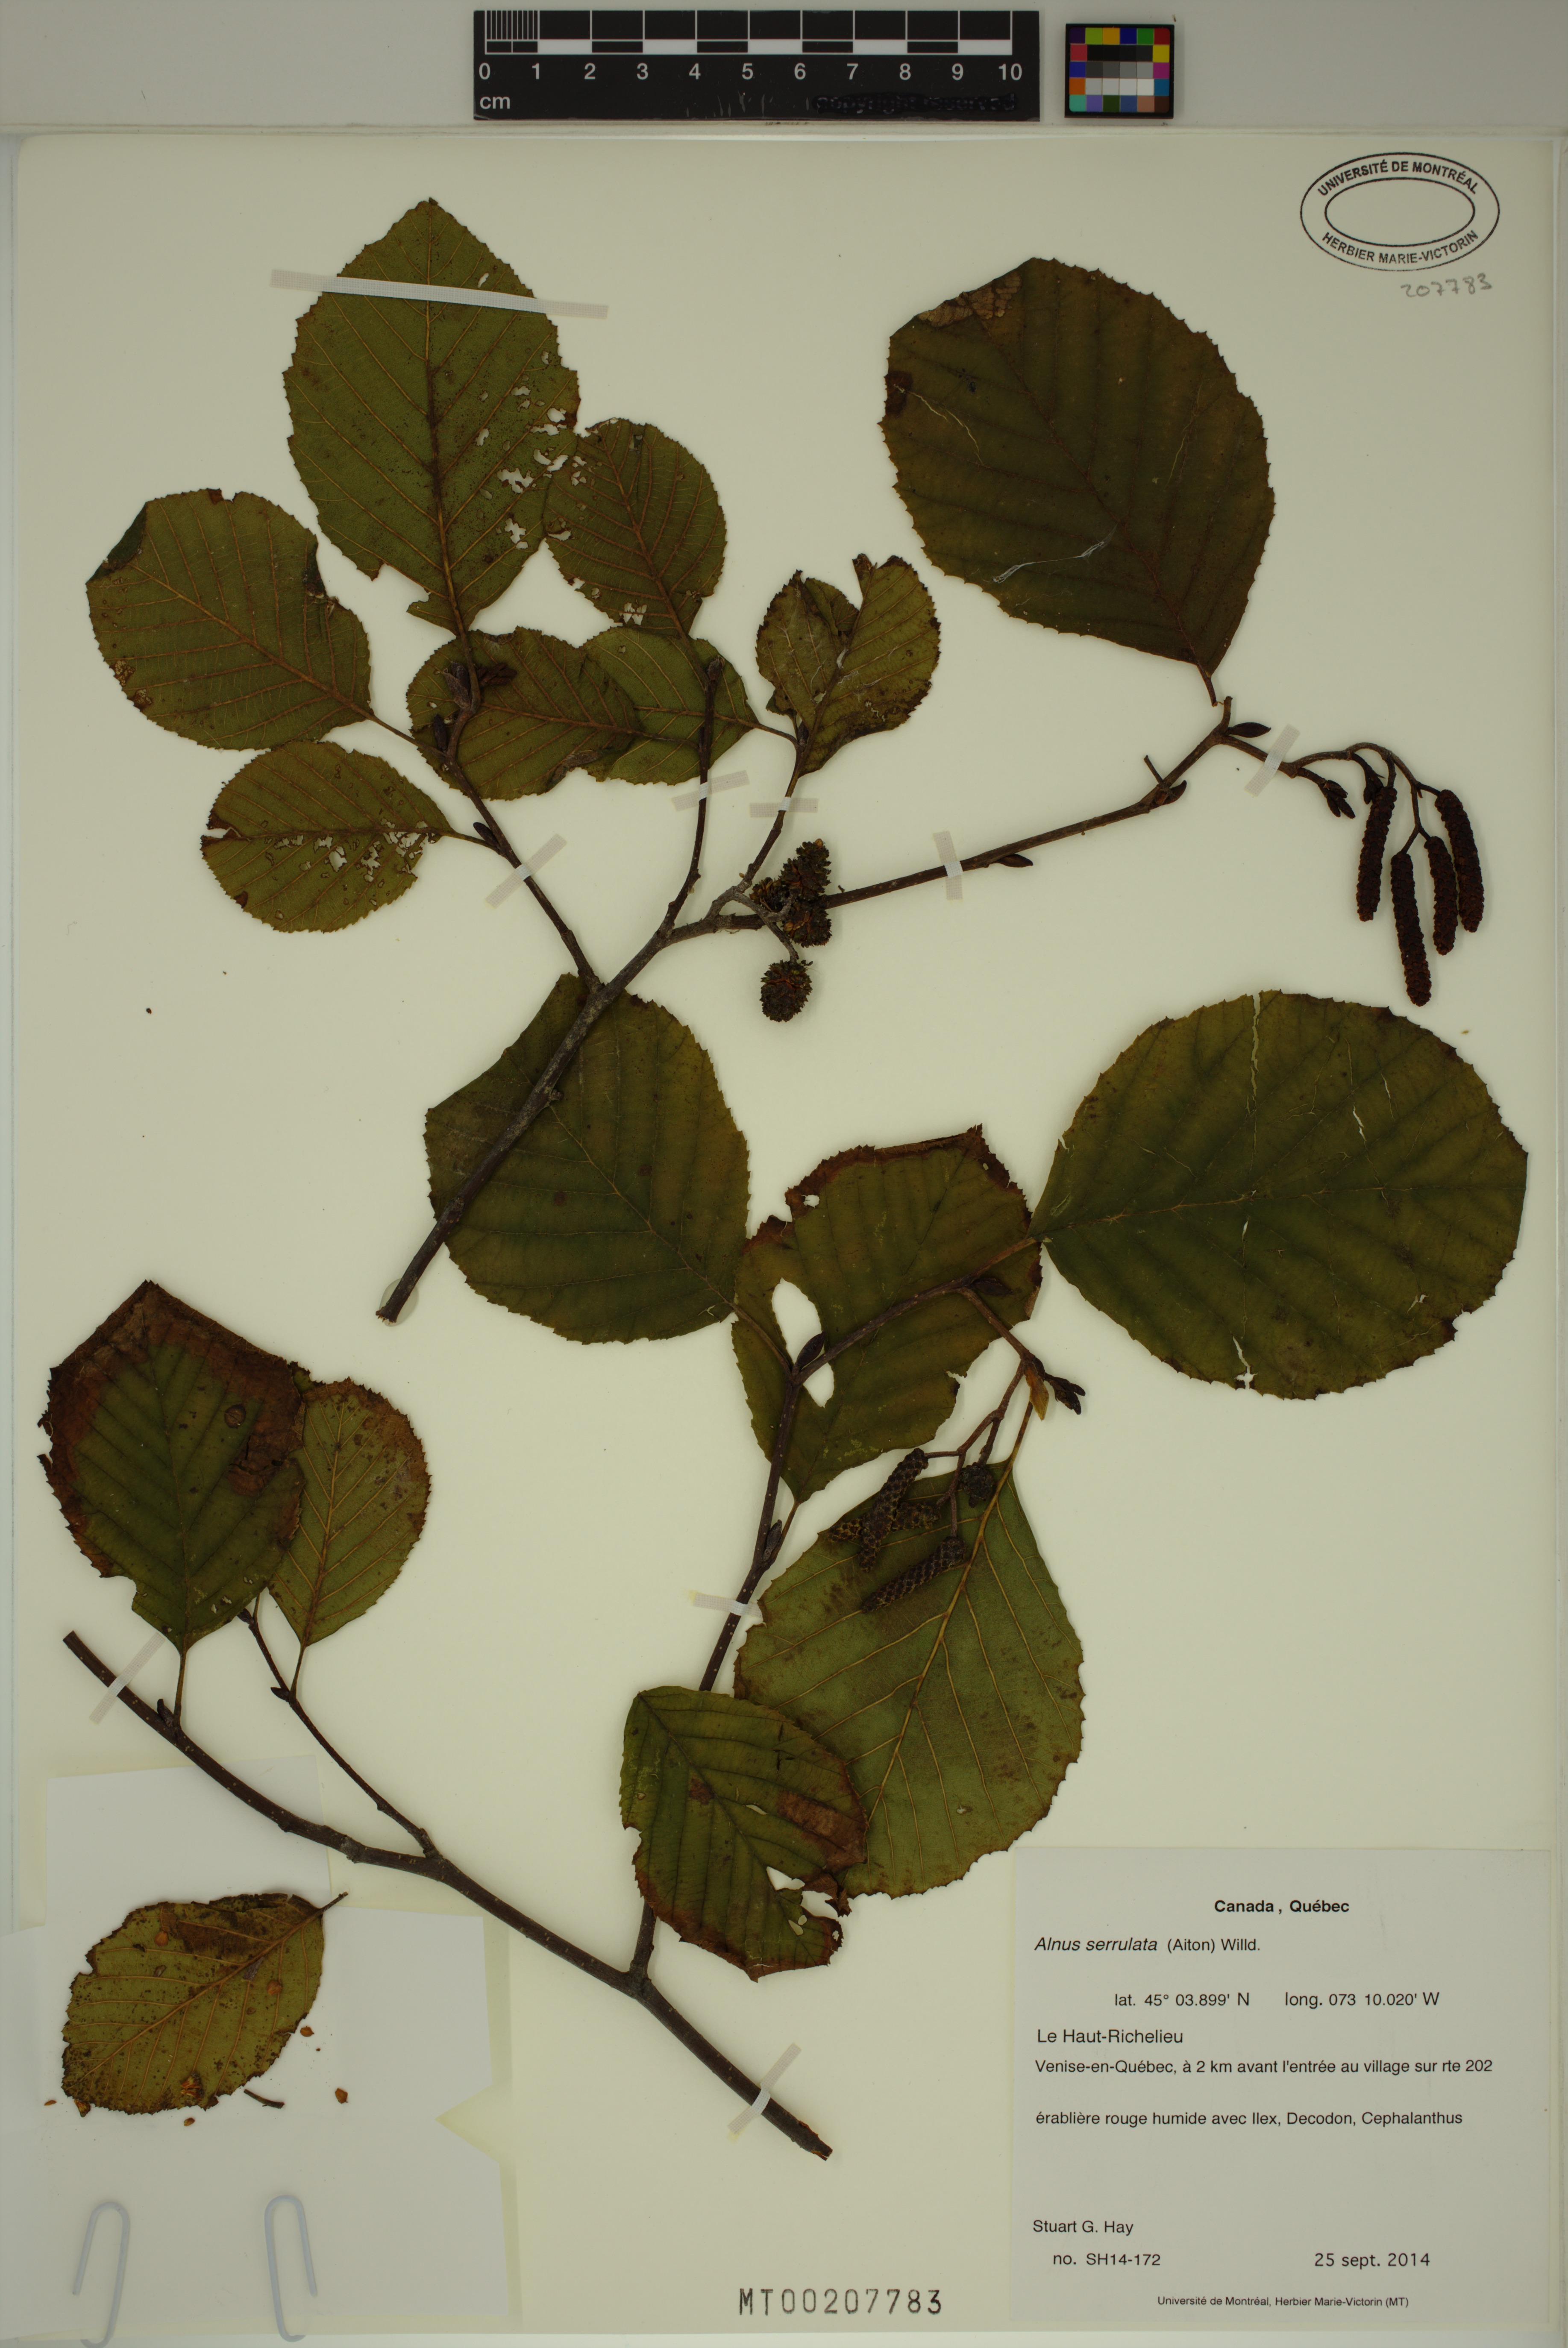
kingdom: Plantae
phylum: Tracheophyta
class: Magnoliopsida
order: Fagales
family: Betulaceae
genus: Alnus
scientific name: Alnus serrulata
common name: Hazel alder
